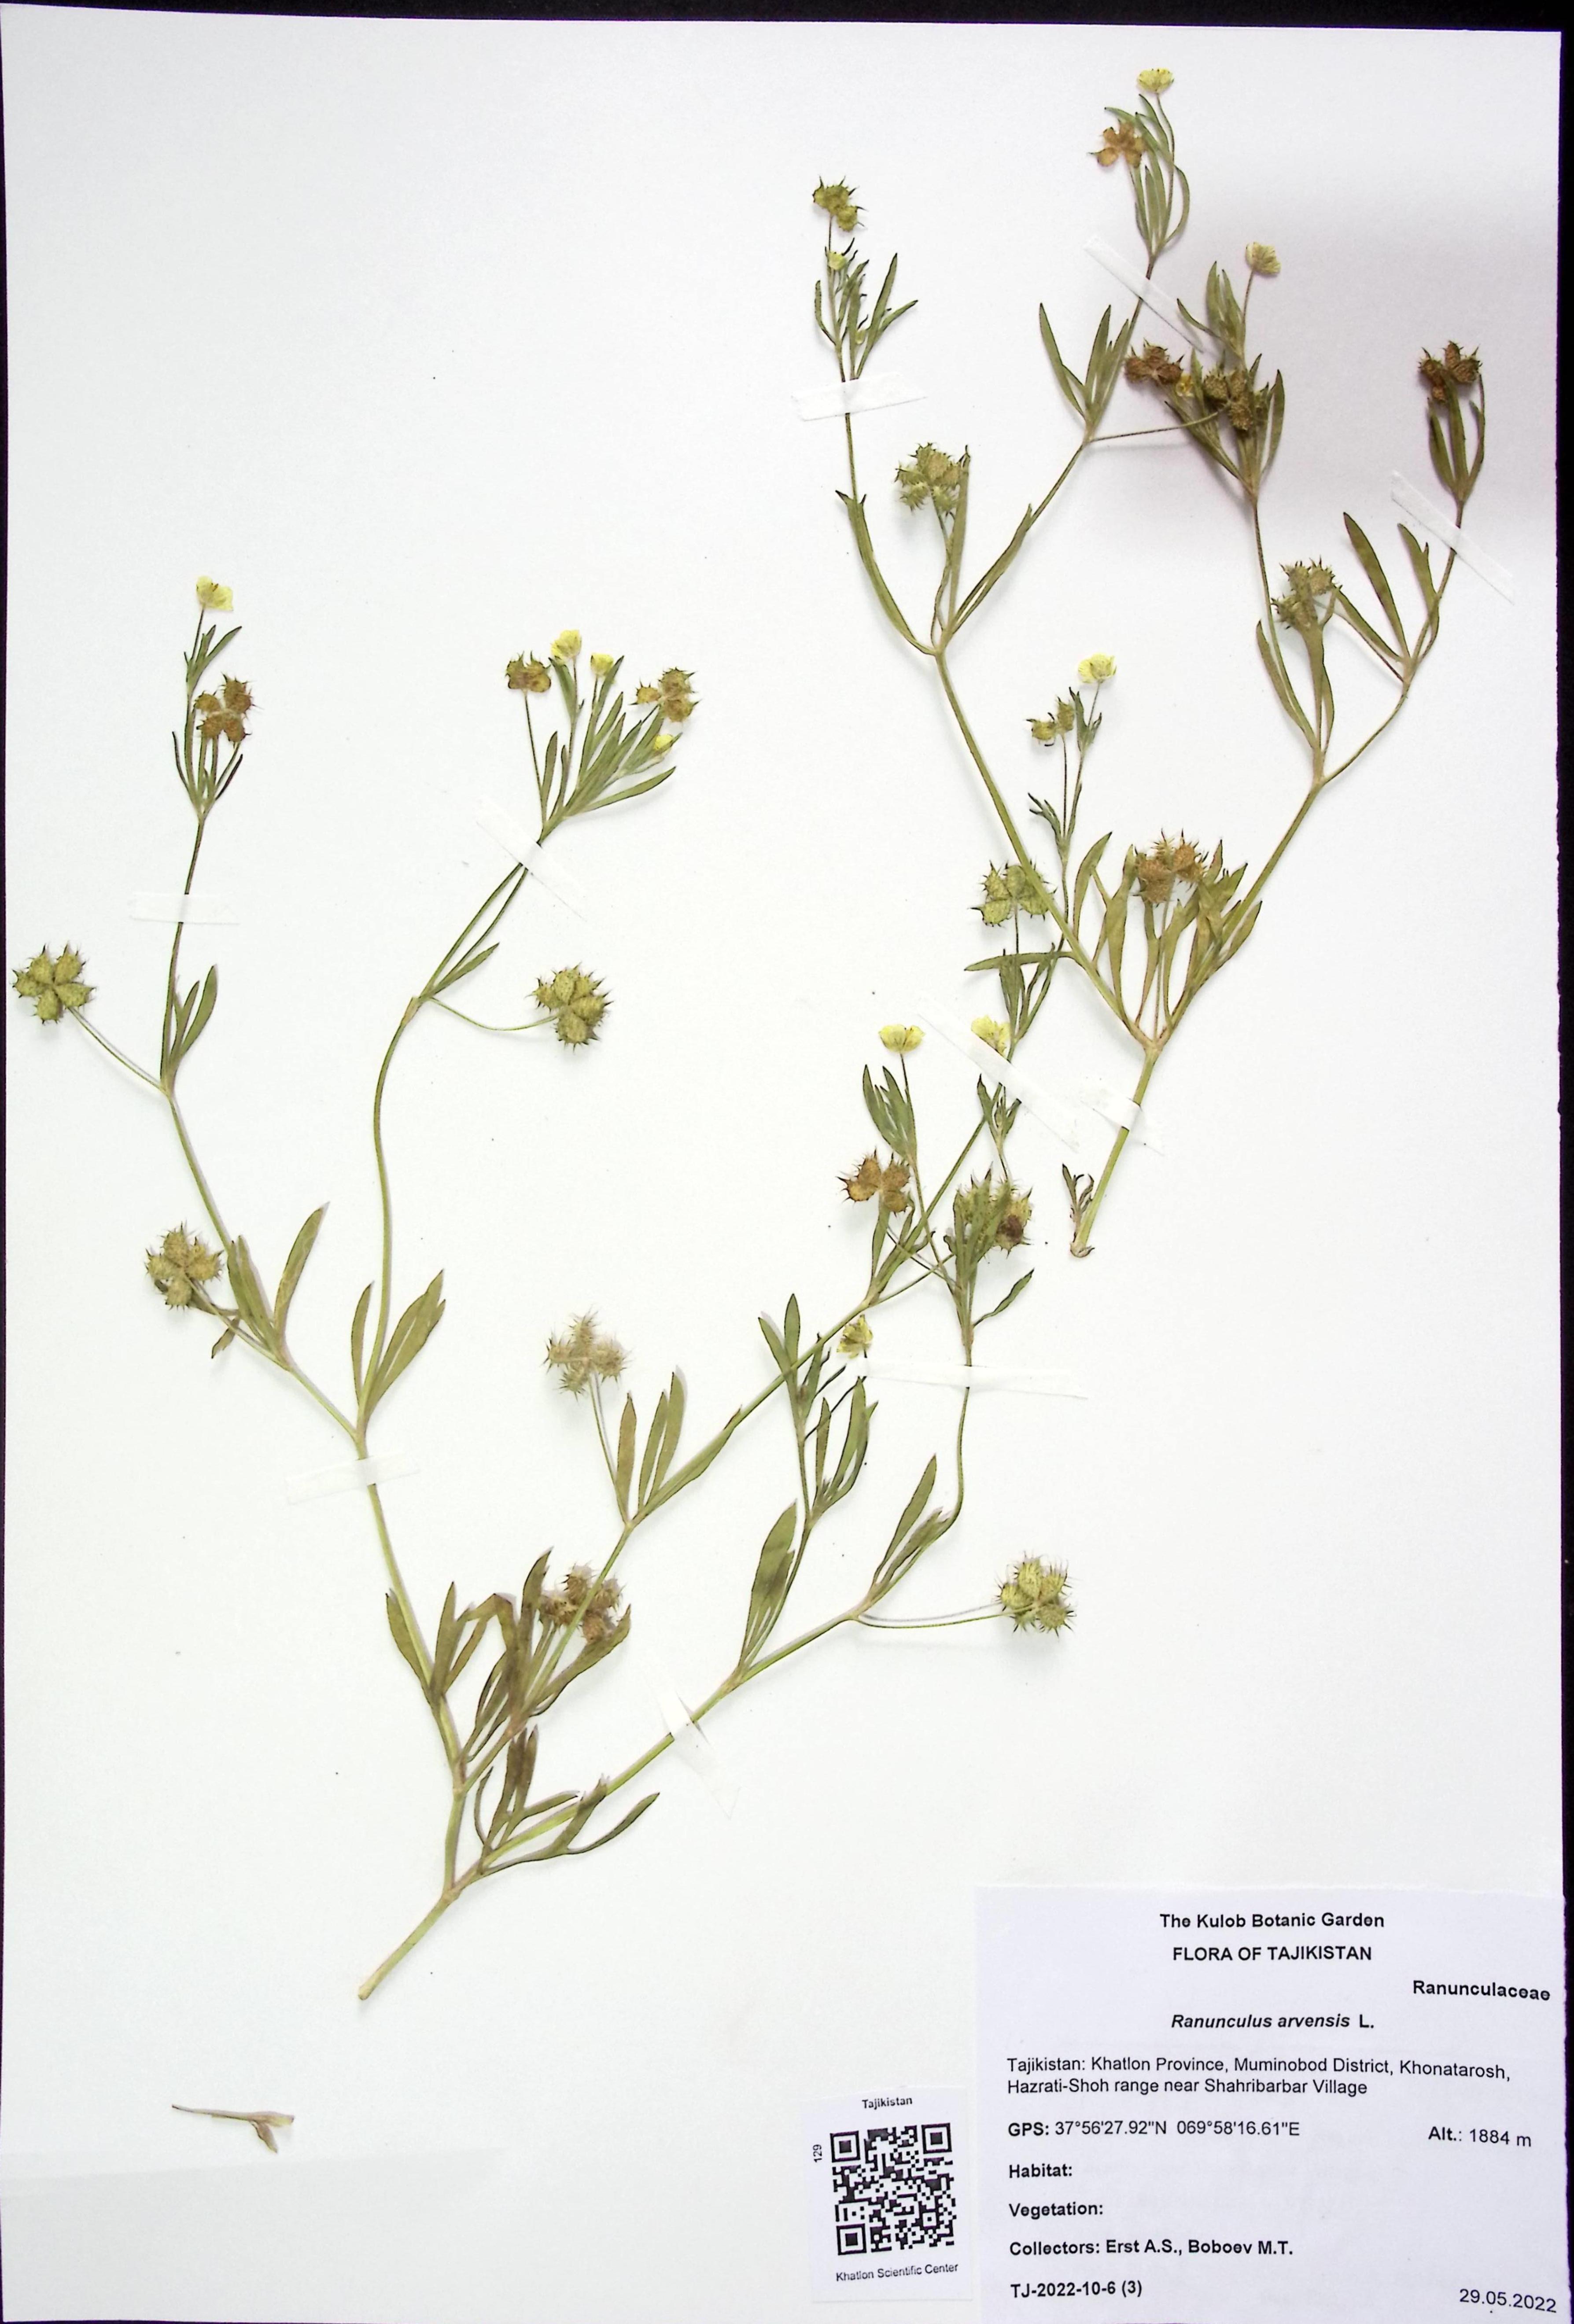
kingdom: Plantae
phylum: Tracheophyta
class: Magnoliopsida
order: Ranunculales
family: Ranunculaceae
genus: Ranunculus
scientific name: Ranunculus arvensis
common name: Corn buttercup
